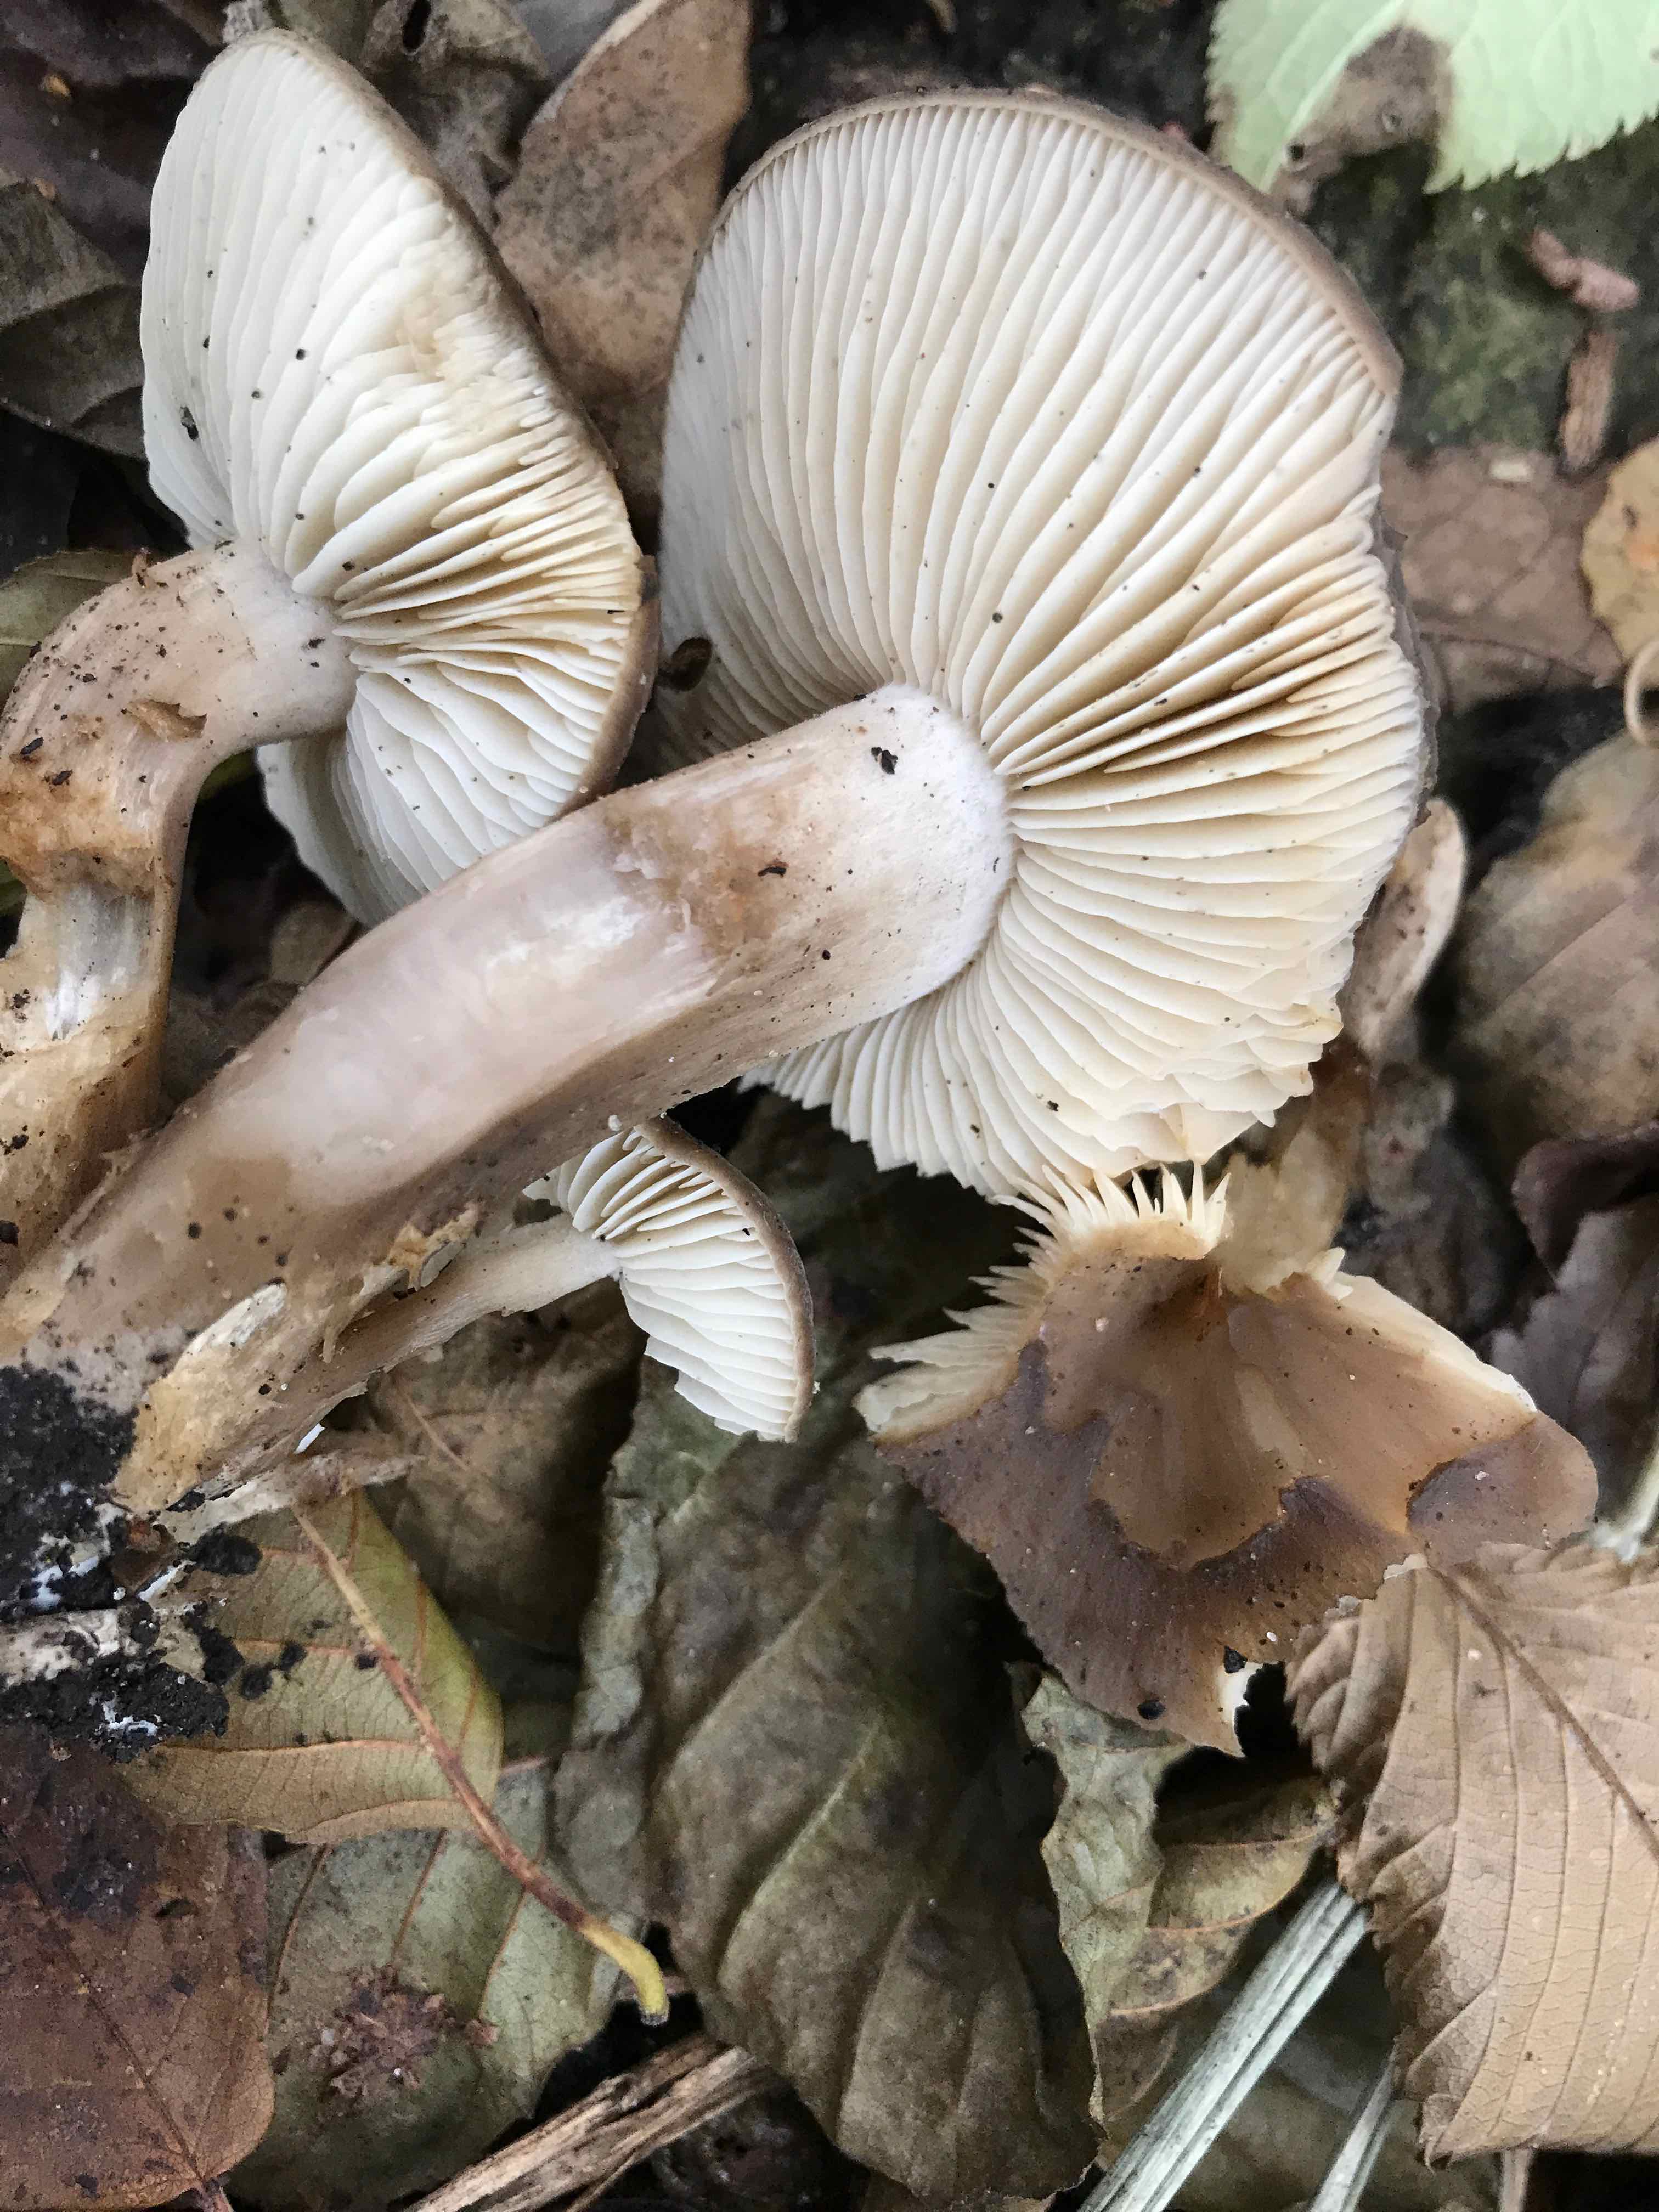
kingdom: Fungi
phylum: Basidiomycota
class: Agaricomycetes
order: Agaricales
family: Lyophyllaceae
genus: Lyophyllum
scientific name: Lyophyllum decastes
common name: Clustered domecap
